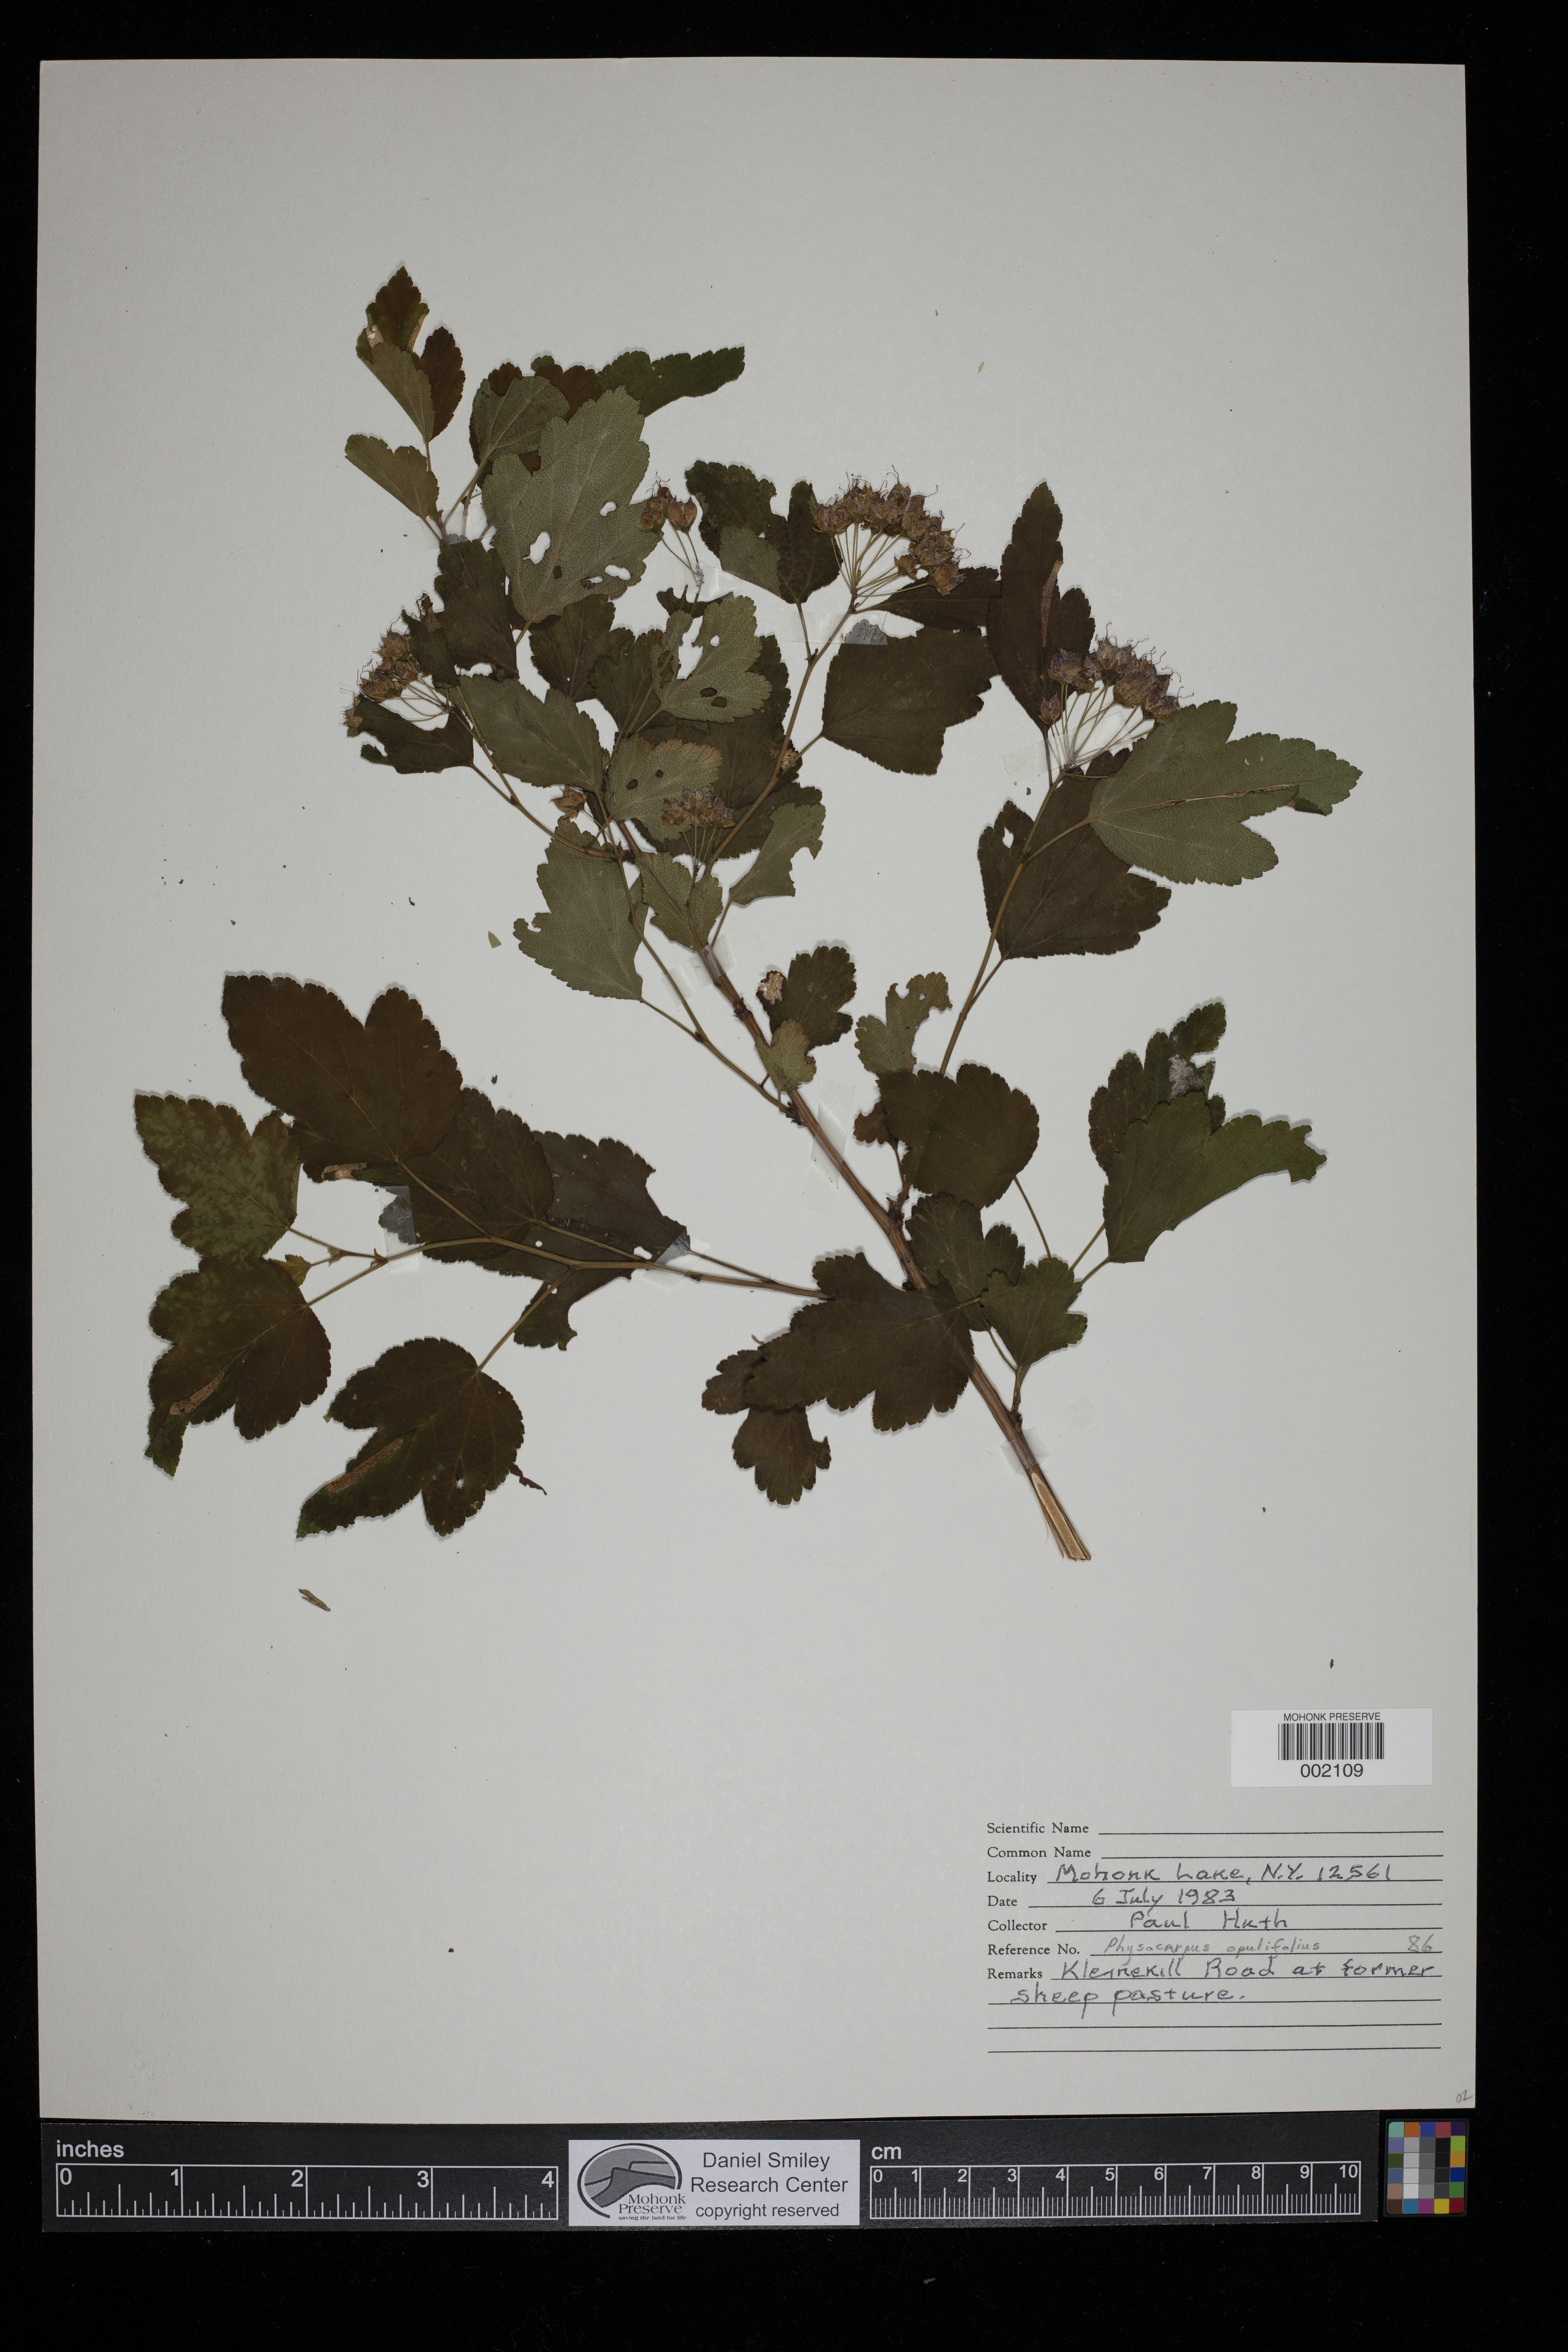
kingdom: Plantae
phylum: Tracheophyta
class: Magnoliopsida
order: Rosales
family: Rosaceae
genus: Physocarpus
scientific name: Physocarpus opulifolius
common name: Ninebark
